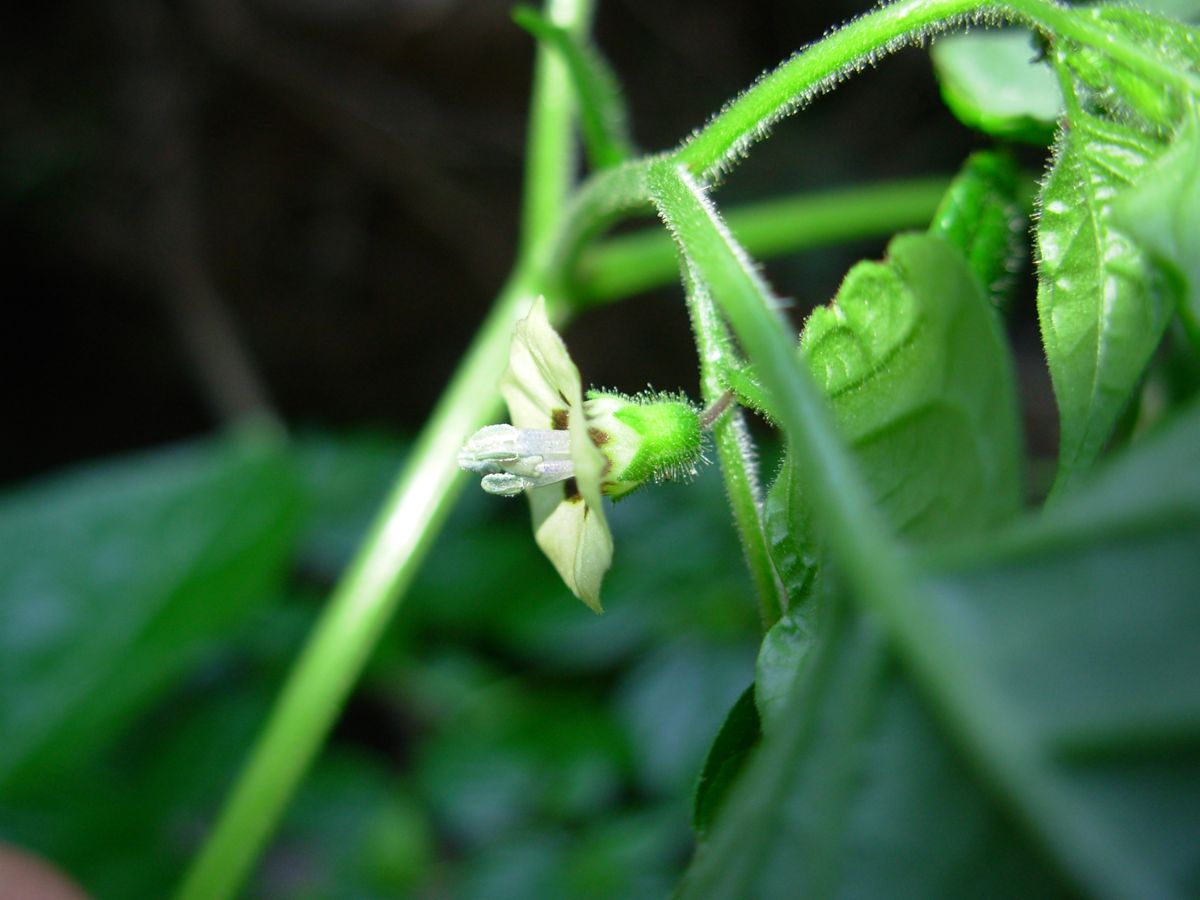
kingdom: Plantae
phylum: Tracheophyta
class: Magnoliopsida
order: Solanales
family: Solanaceae
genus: Physalis
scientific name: Physalis pubescens
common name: Downy ground-cherry
